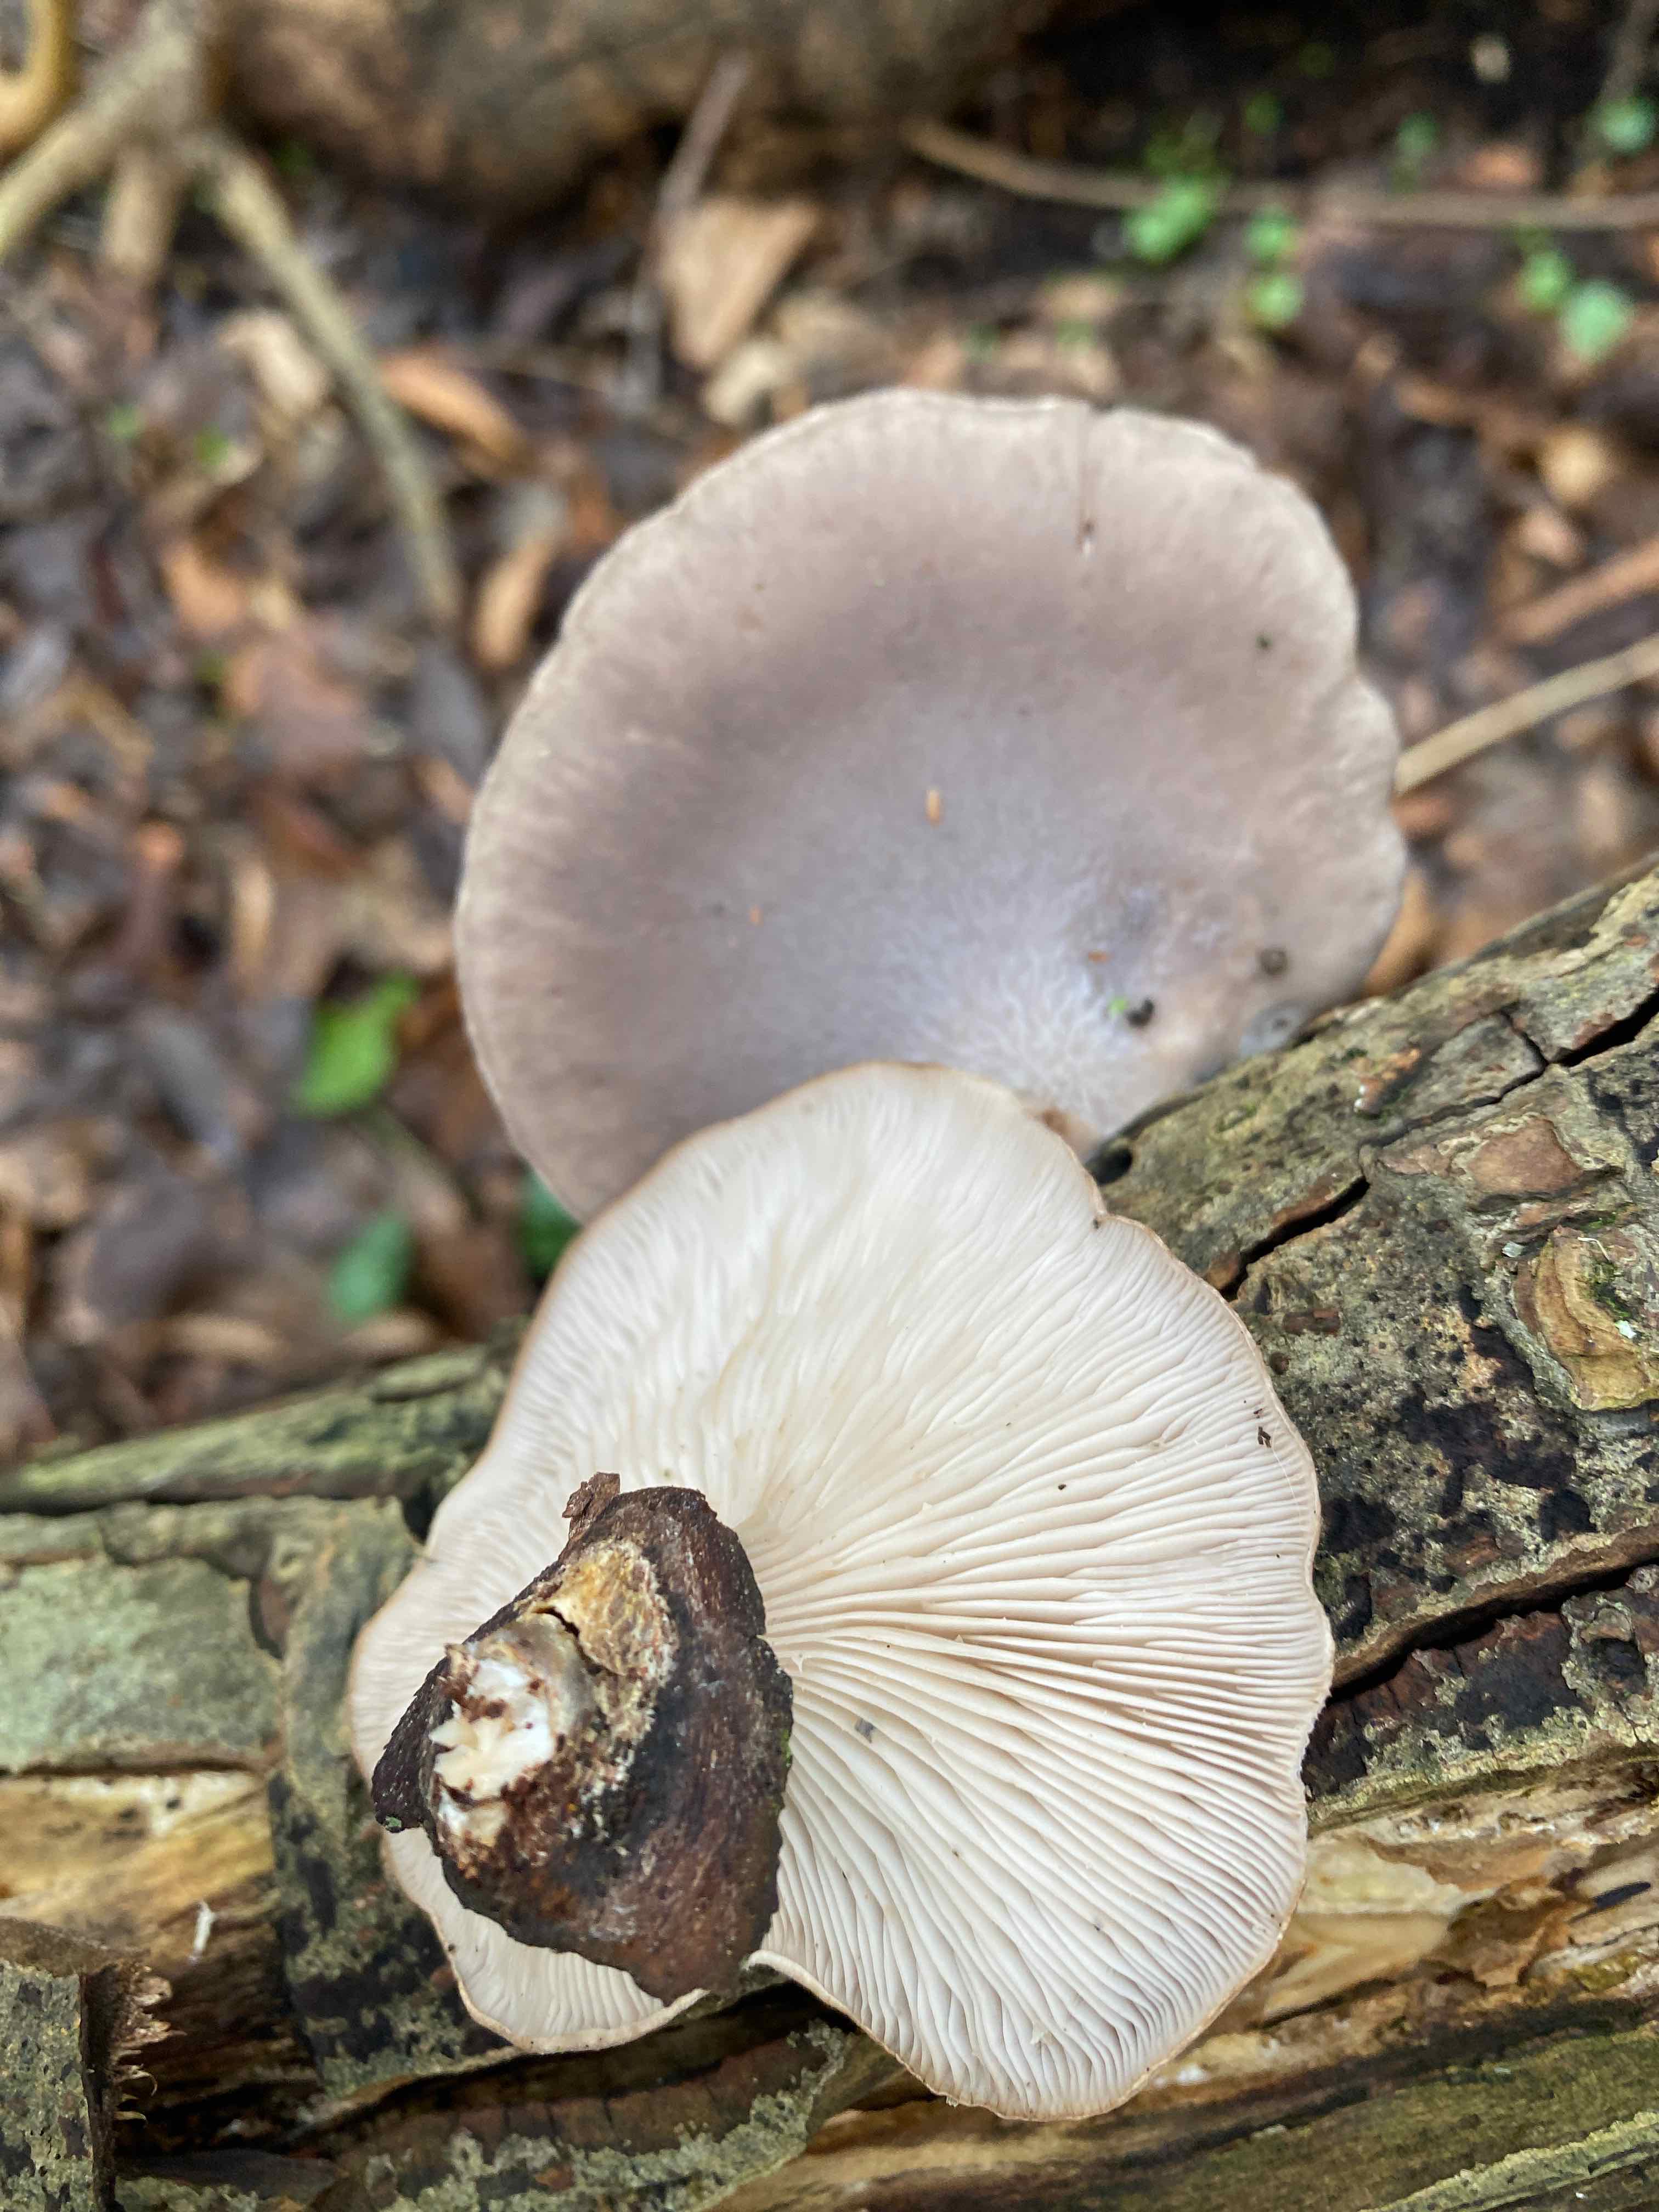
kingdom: Fungi
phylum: Basidiomycota
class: Agaricomycetes
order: Agaricales
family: Pleurotaceae
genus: Pleurotus
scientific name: Pleurotus ostreatus
